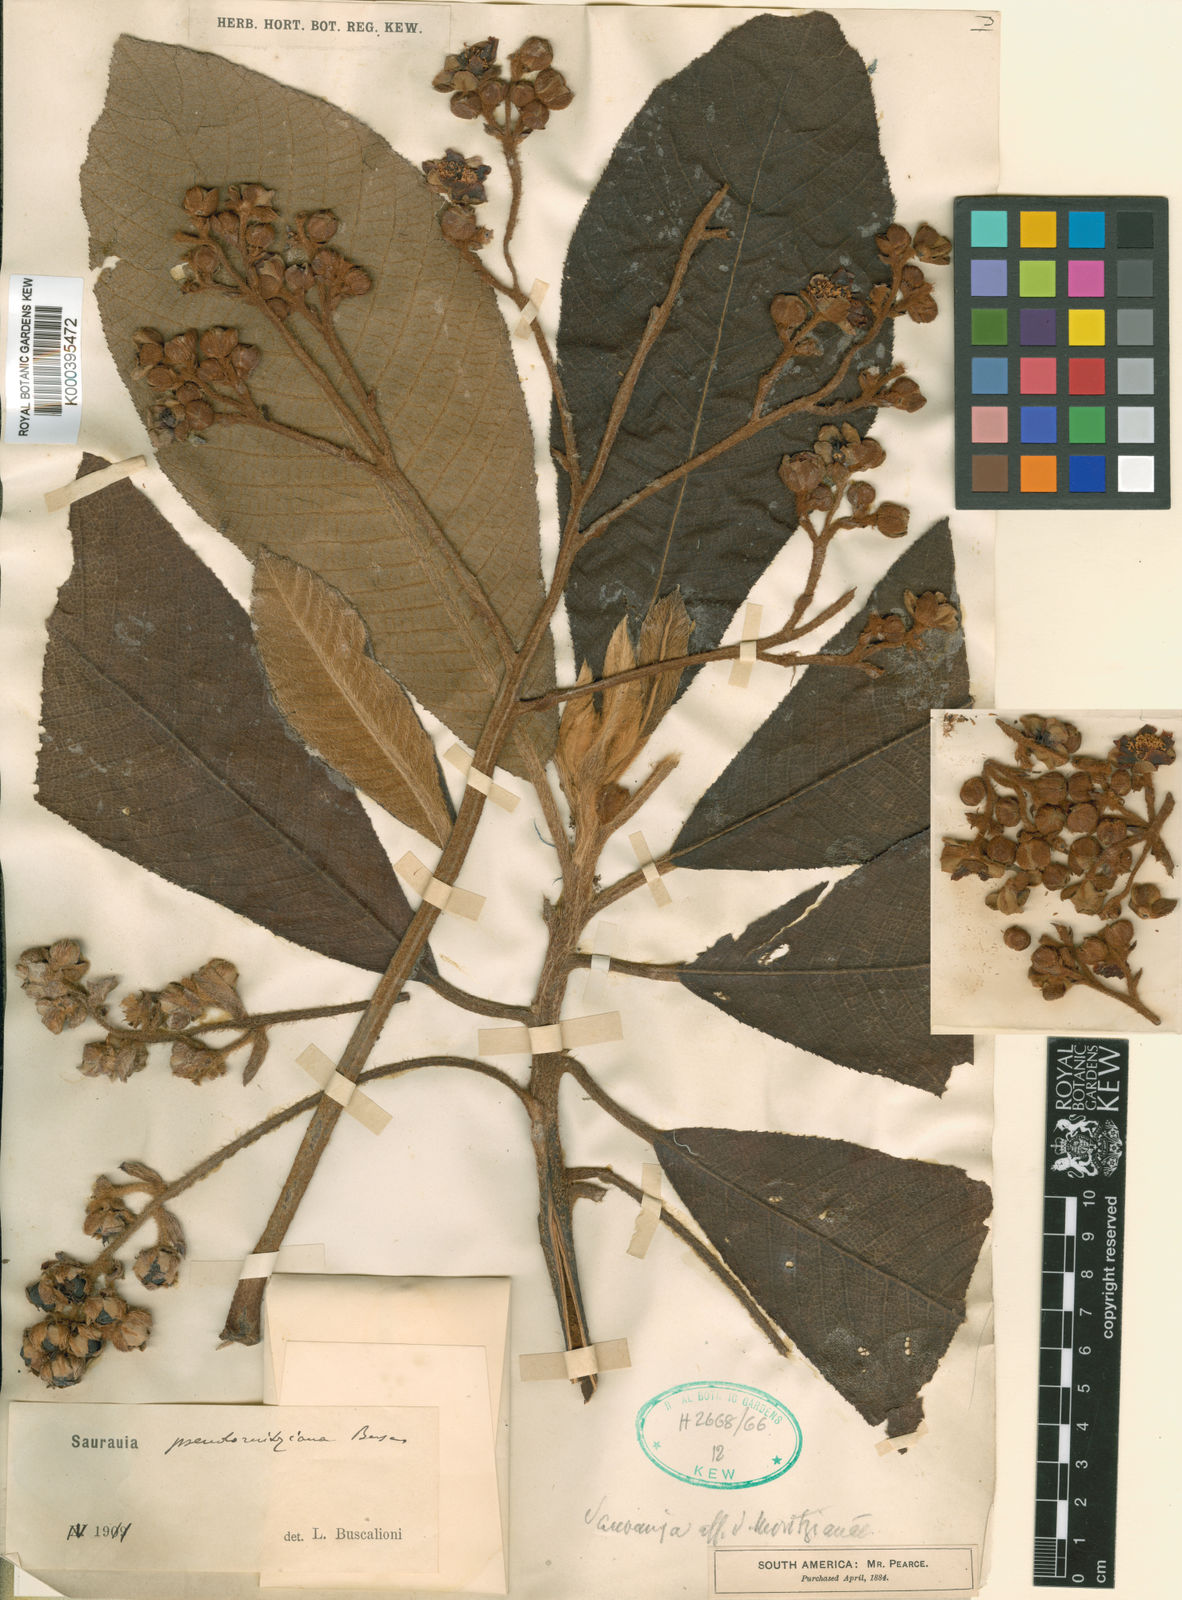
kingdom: Plantae
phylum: Tracheophyta
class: Magnoliopsida
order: Ericales
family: Actinidiaceae
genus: Saurauia
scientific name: Saurauia biserrata
